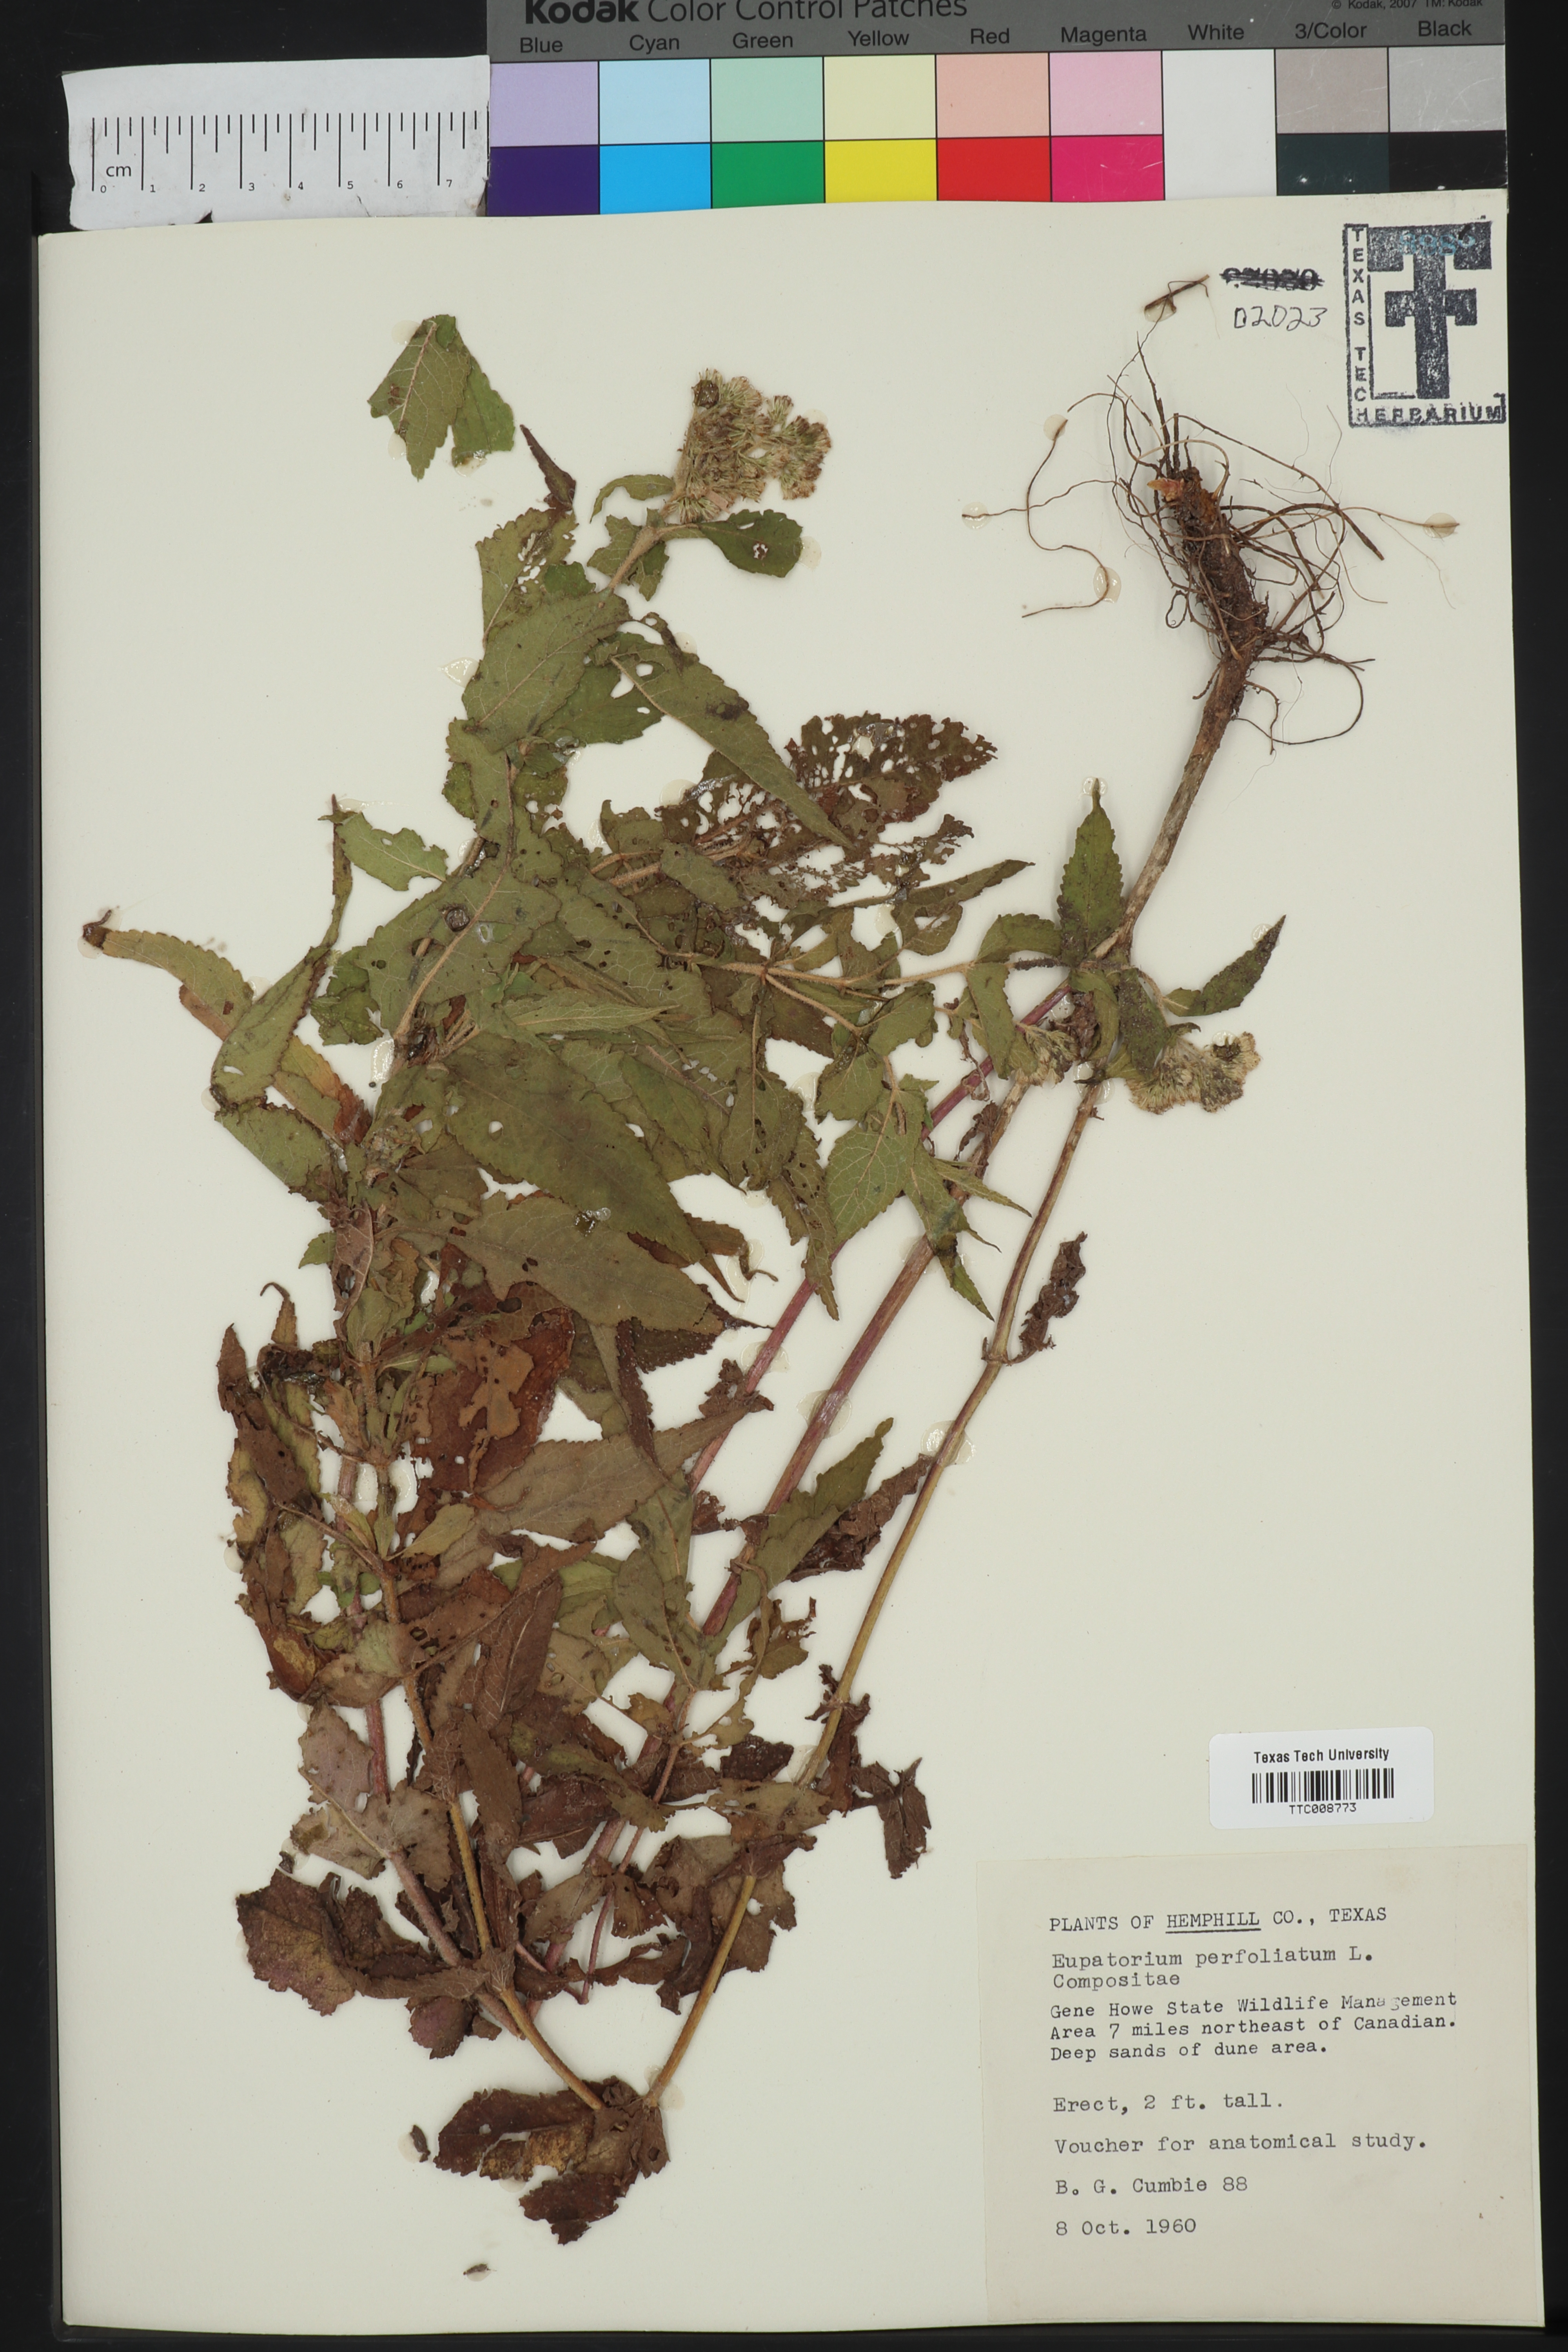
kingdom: Plantae
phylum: Tracheophyta
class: Magnoliopsida
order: Asterales
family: Asteraceae
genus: Eupatorium
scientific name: Eupatorium perfoliatum
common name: Boneset
